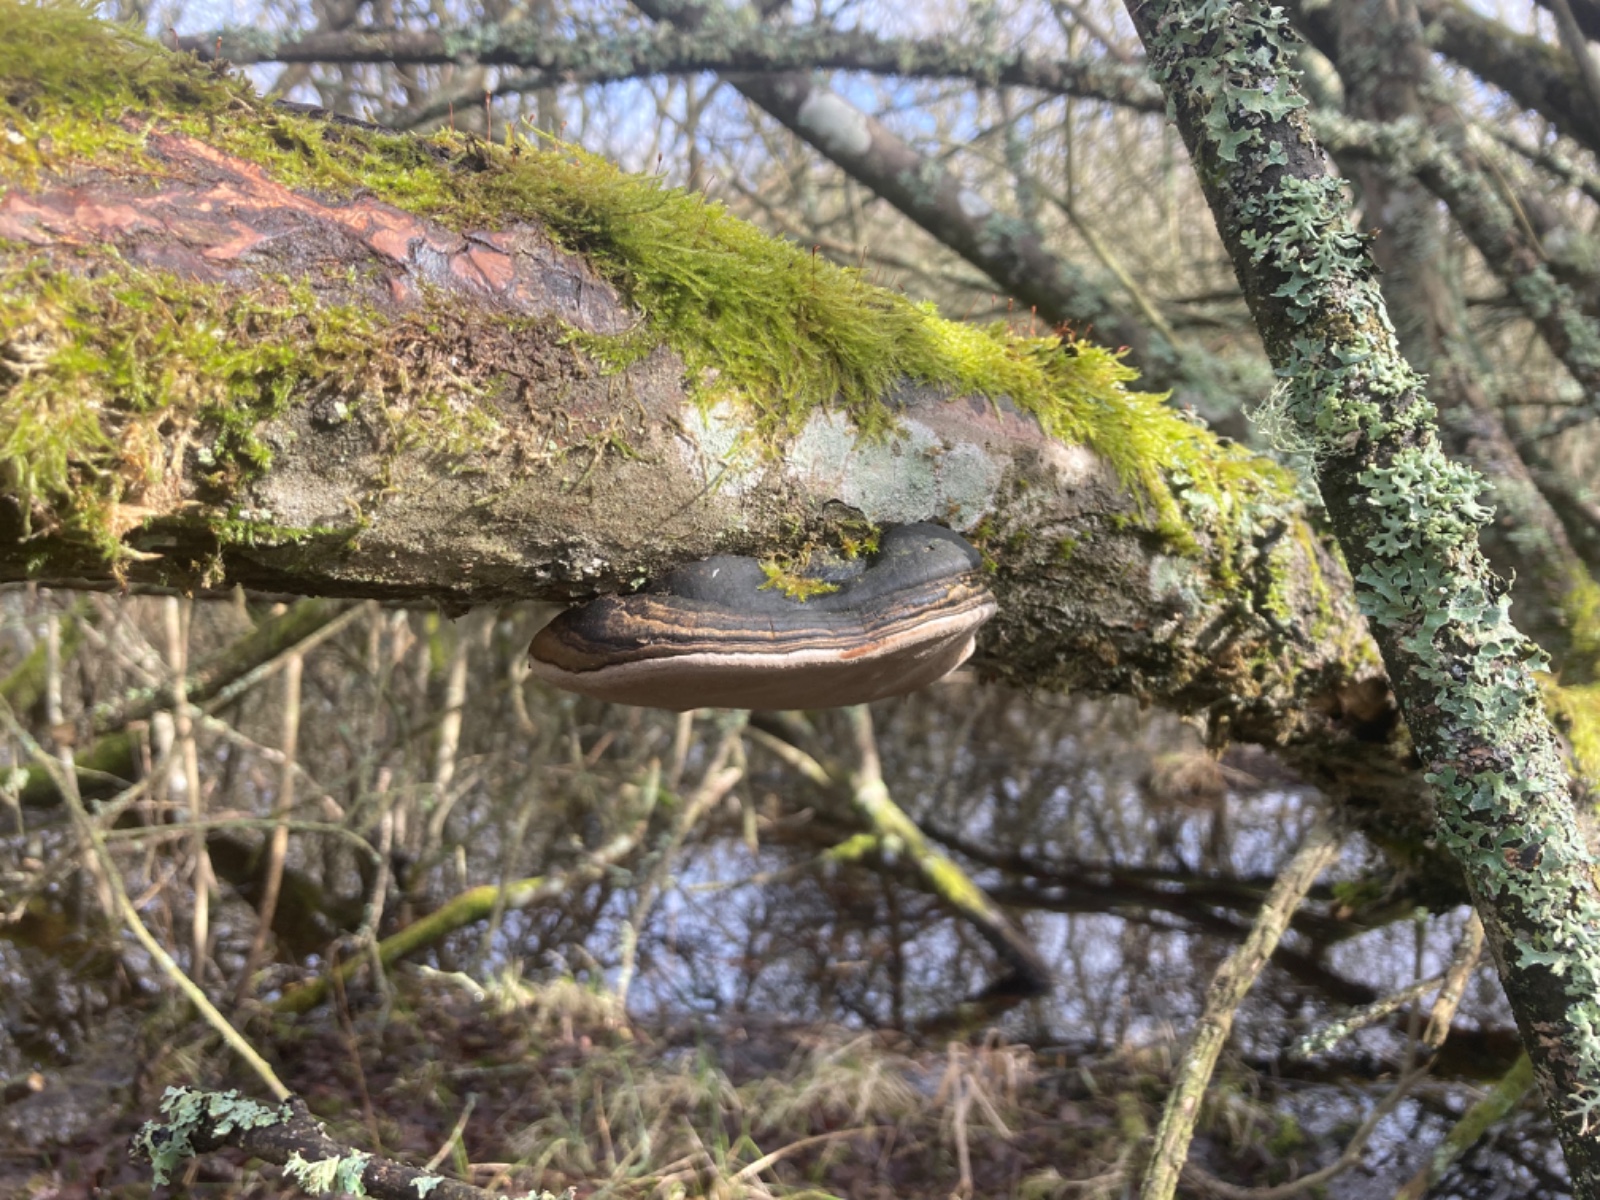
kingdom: Fungi
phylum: Basidiomycota
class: Agaricomycetes
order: Hymenochaetales
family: Hymenochaetaceae
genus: Phellinus
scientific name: Phellinus igniarius
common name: almindelig ildporesvamp
